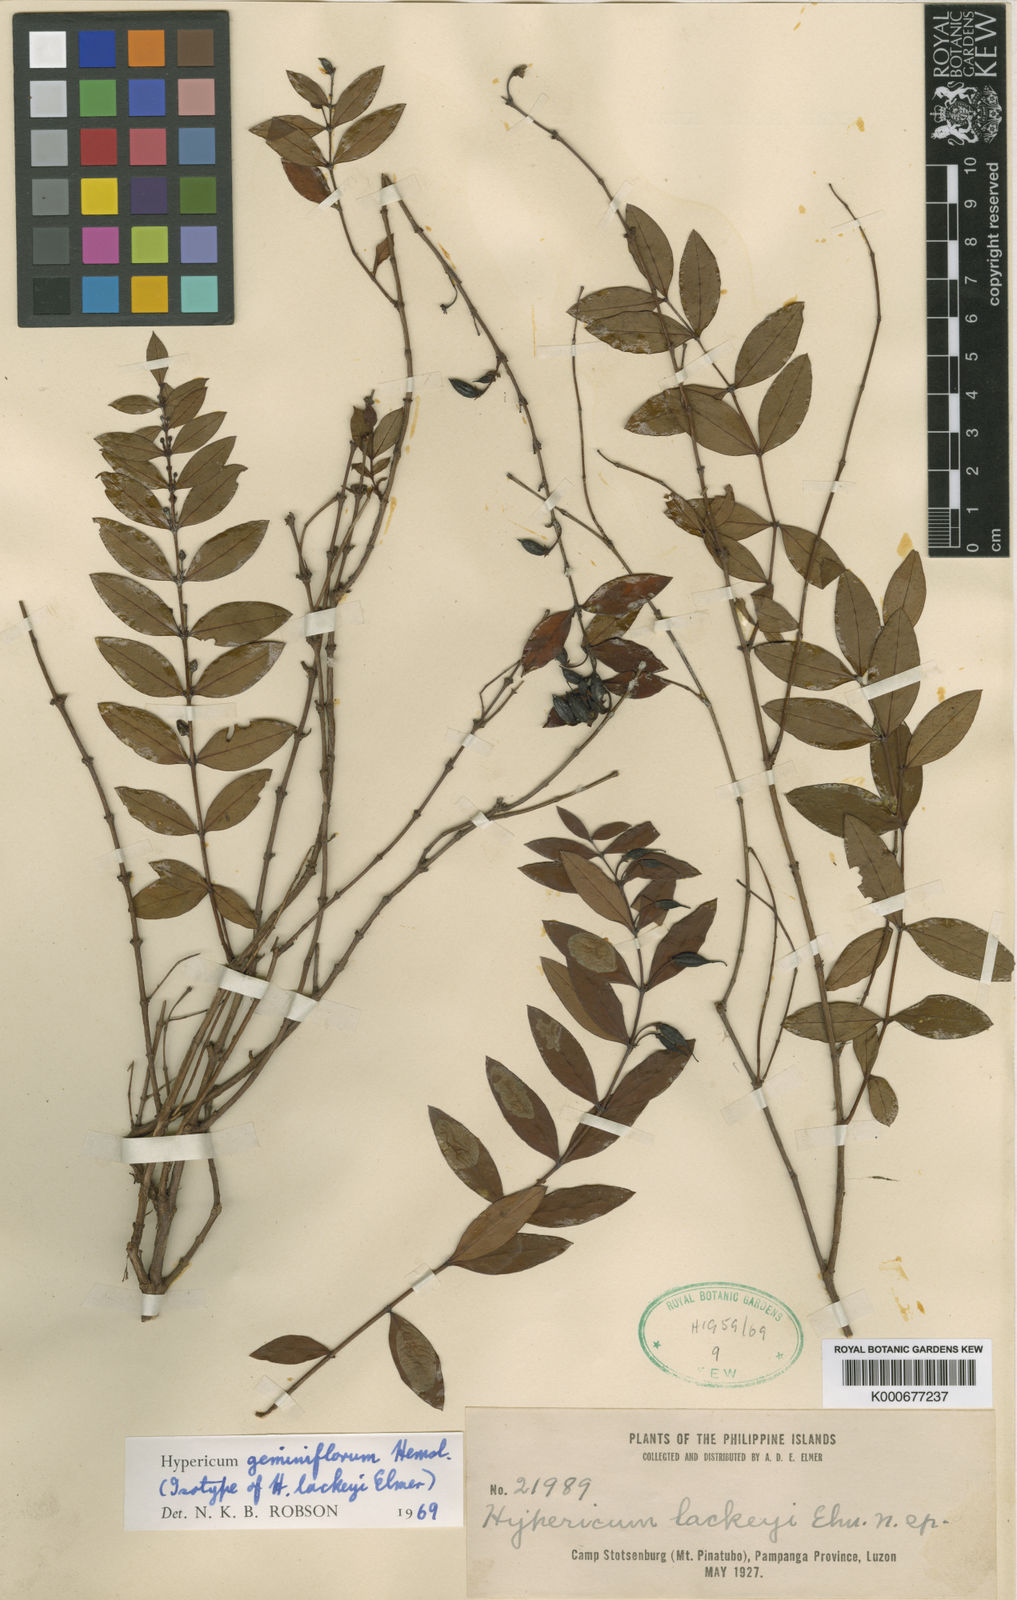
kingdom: Plantae
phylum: Tracheophyta
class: Magnoliopsida
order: Malpighiales
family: Hypericaceae
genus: Hypericum
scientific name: Hypericum geminiflorum
